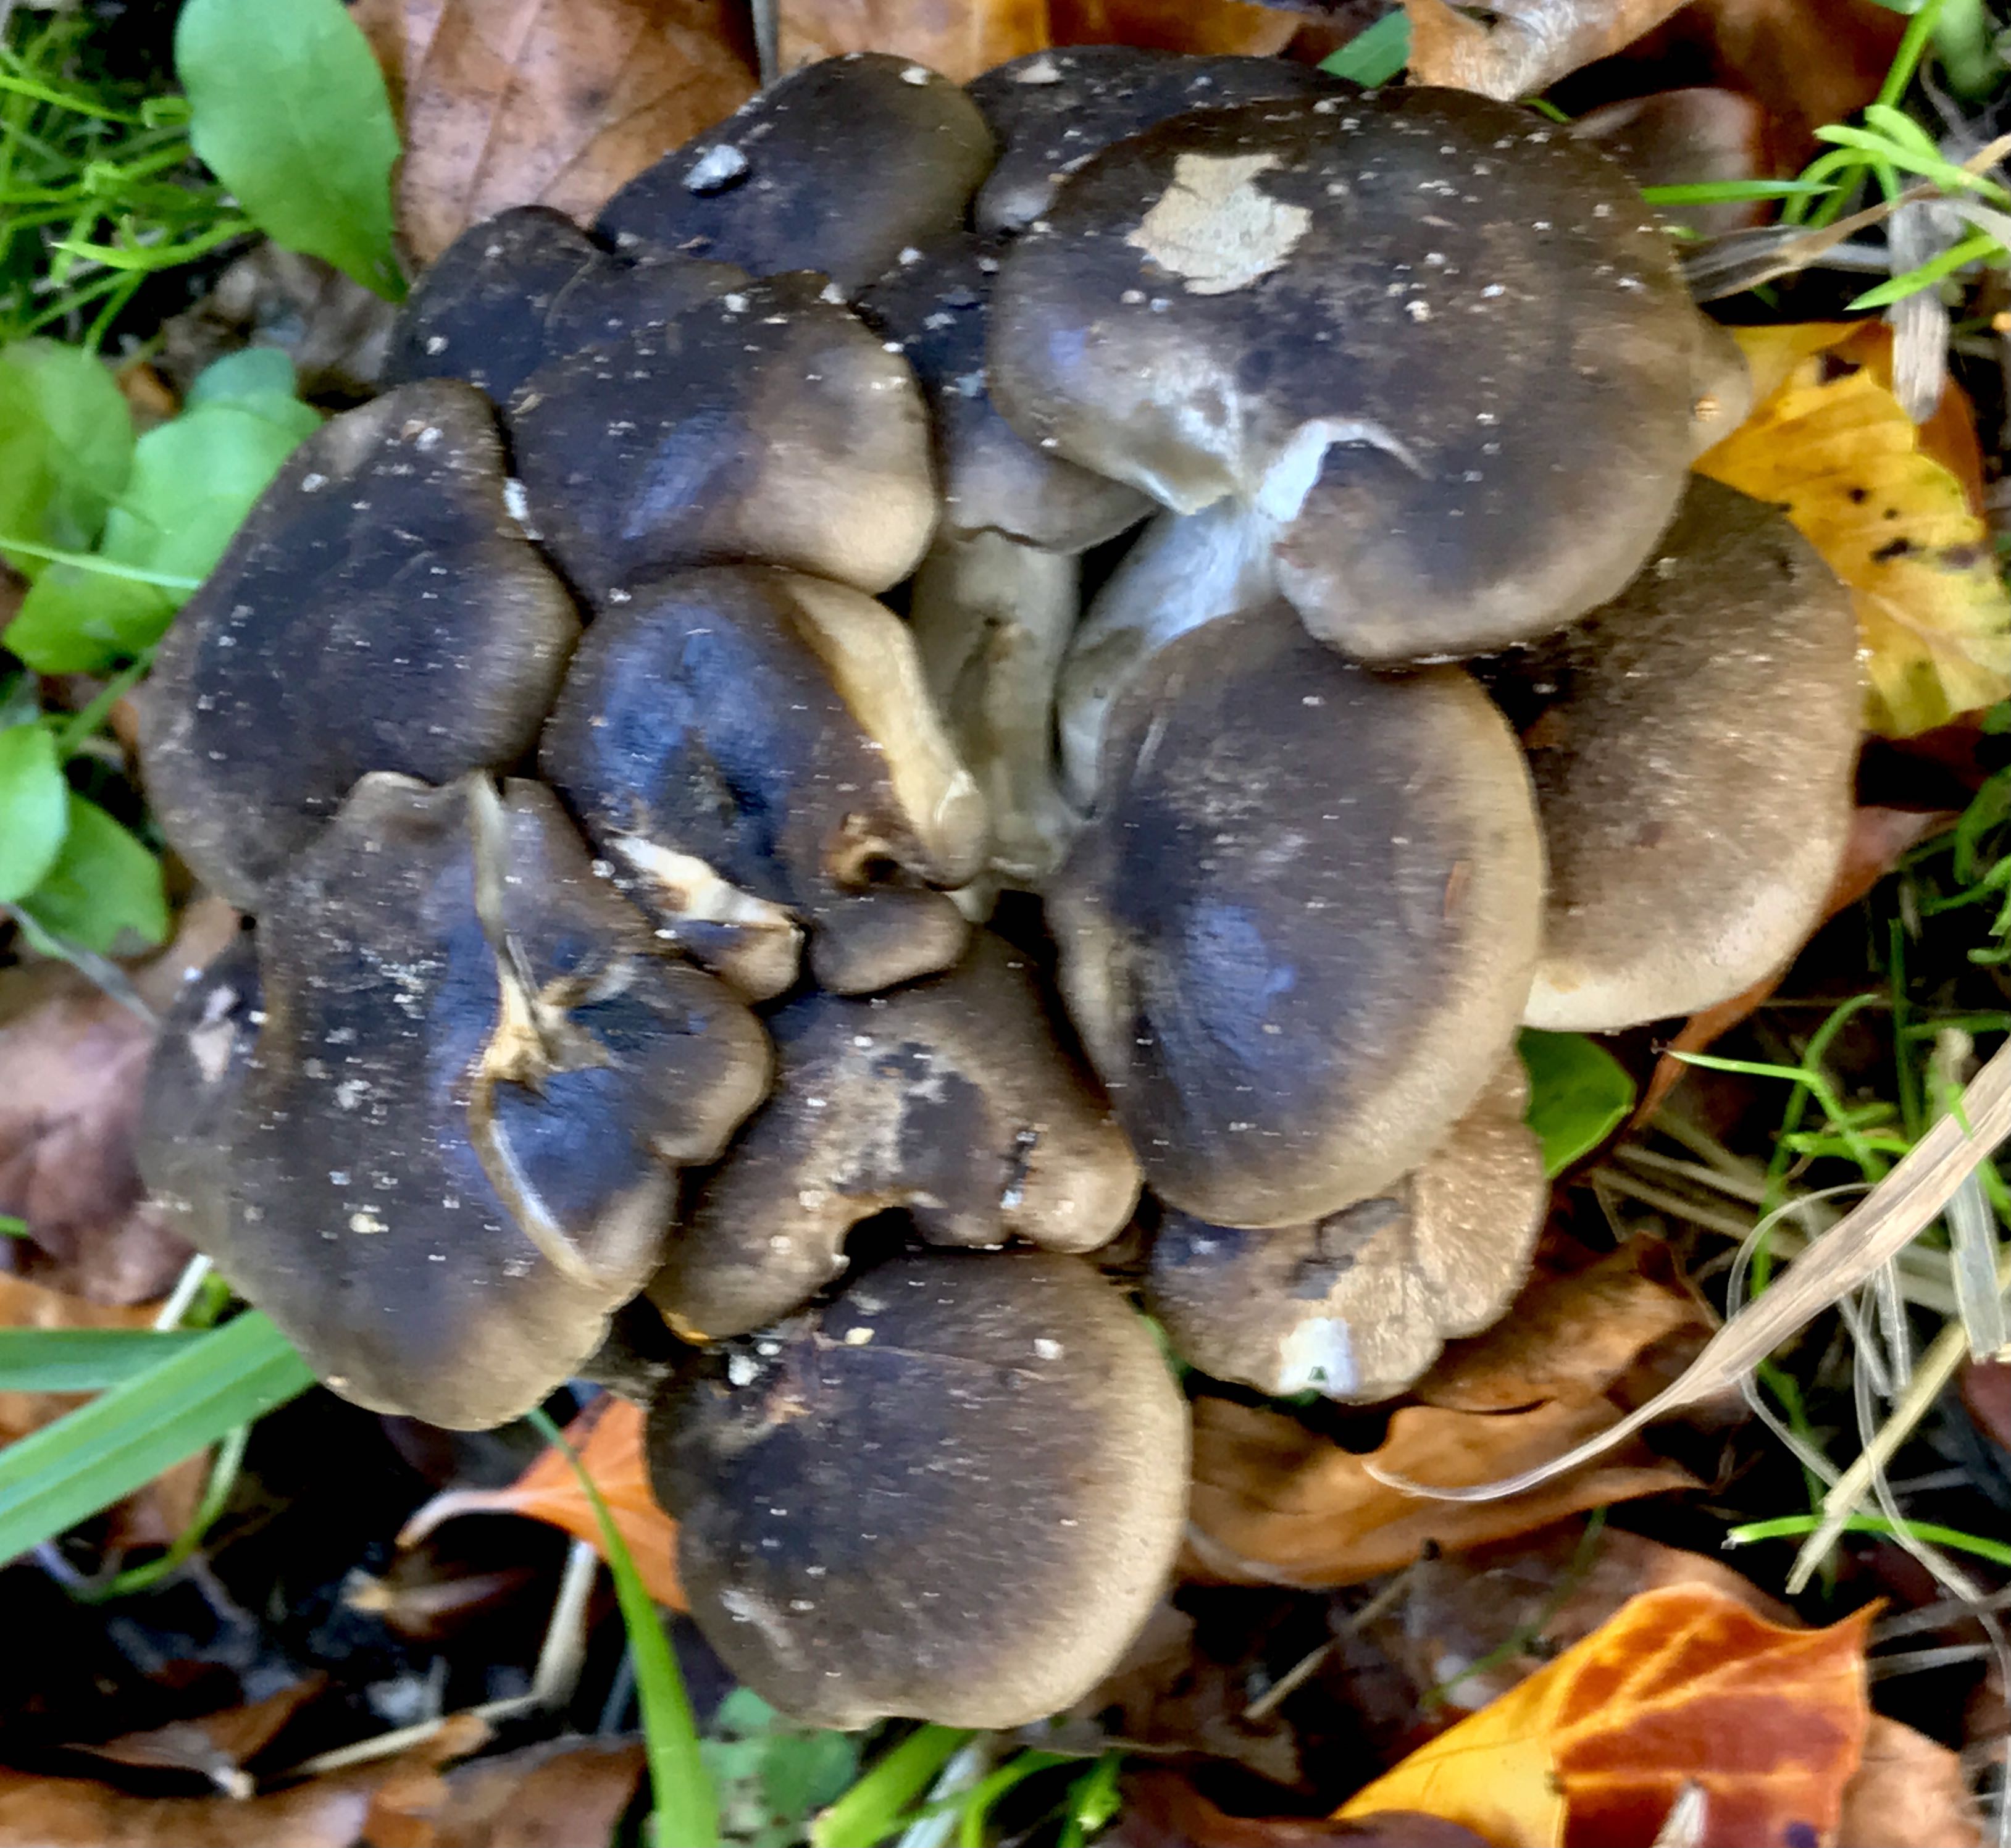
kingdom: Fungi
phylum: Basidiomycota
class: Agaricomycetes
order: Agaricales
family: Lyophyllaceae
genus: Lyophyllum
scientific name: Lyophyllum decastes
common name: røggrå gråblad
